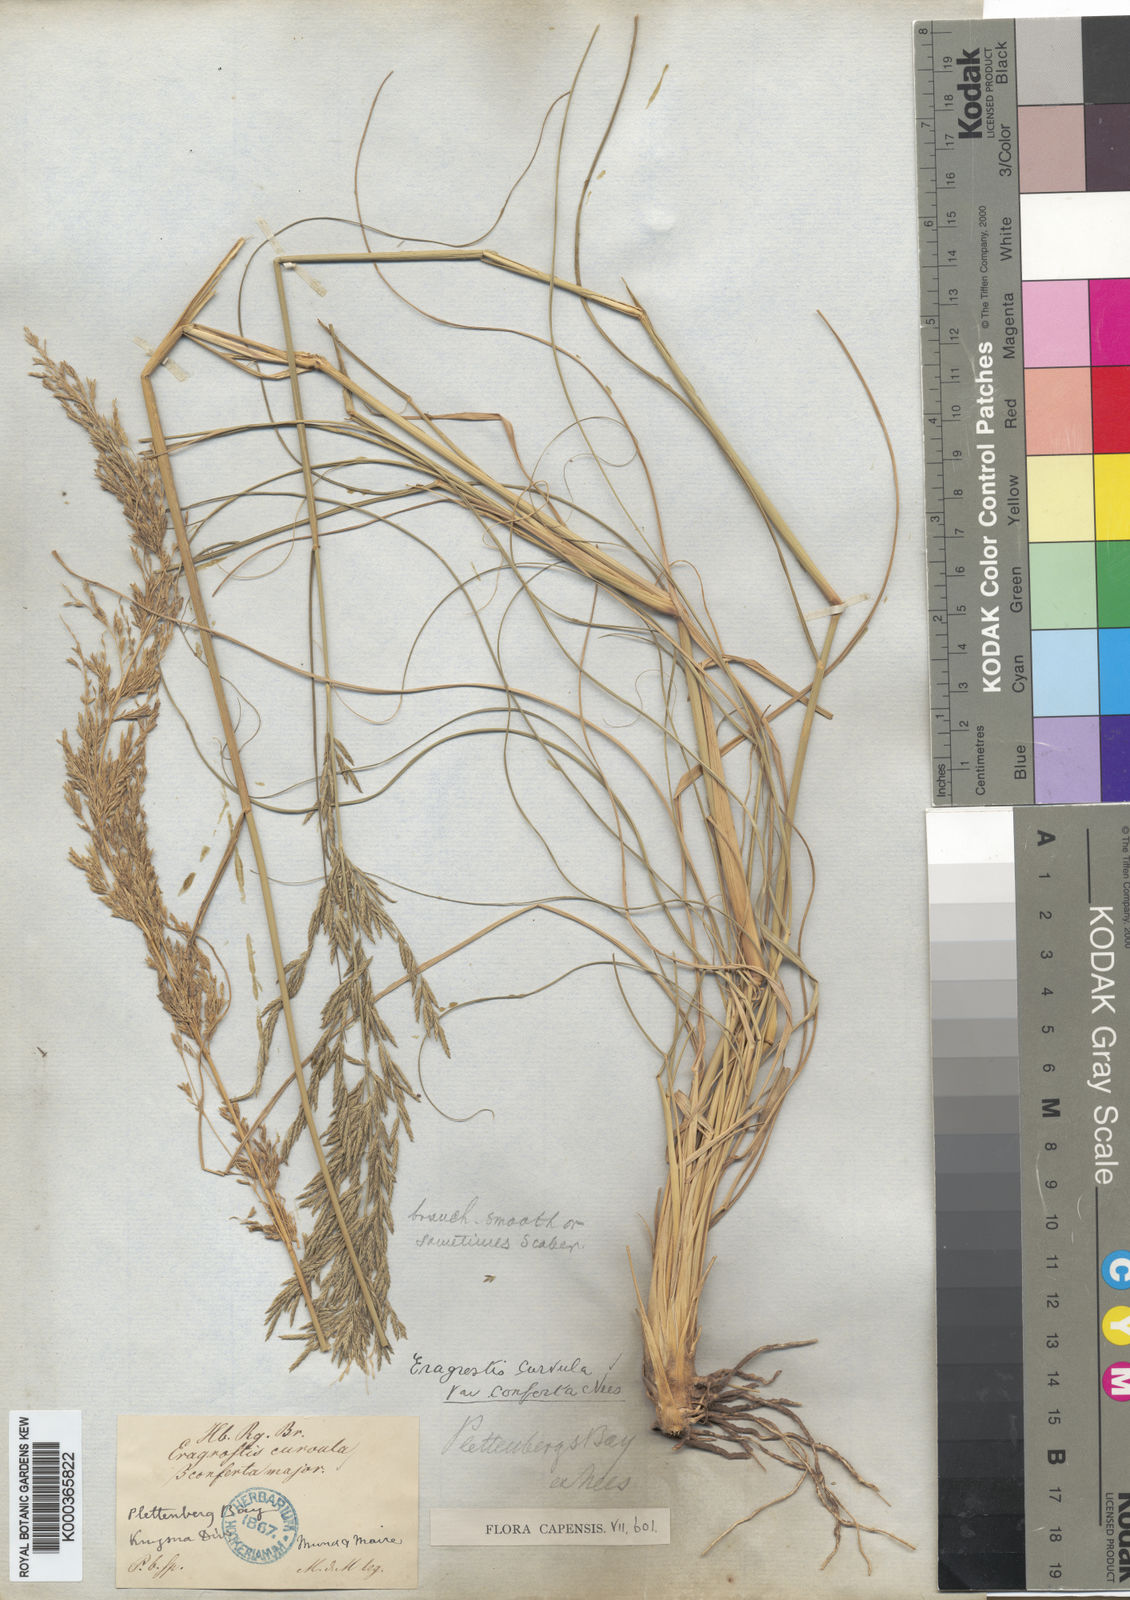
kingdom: Plantae
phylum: Tracheophyta
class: Liliopsida
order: Poales
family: Poaceae
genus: Eragrostis
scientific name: Eragrostis curvula
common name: African love-grass
